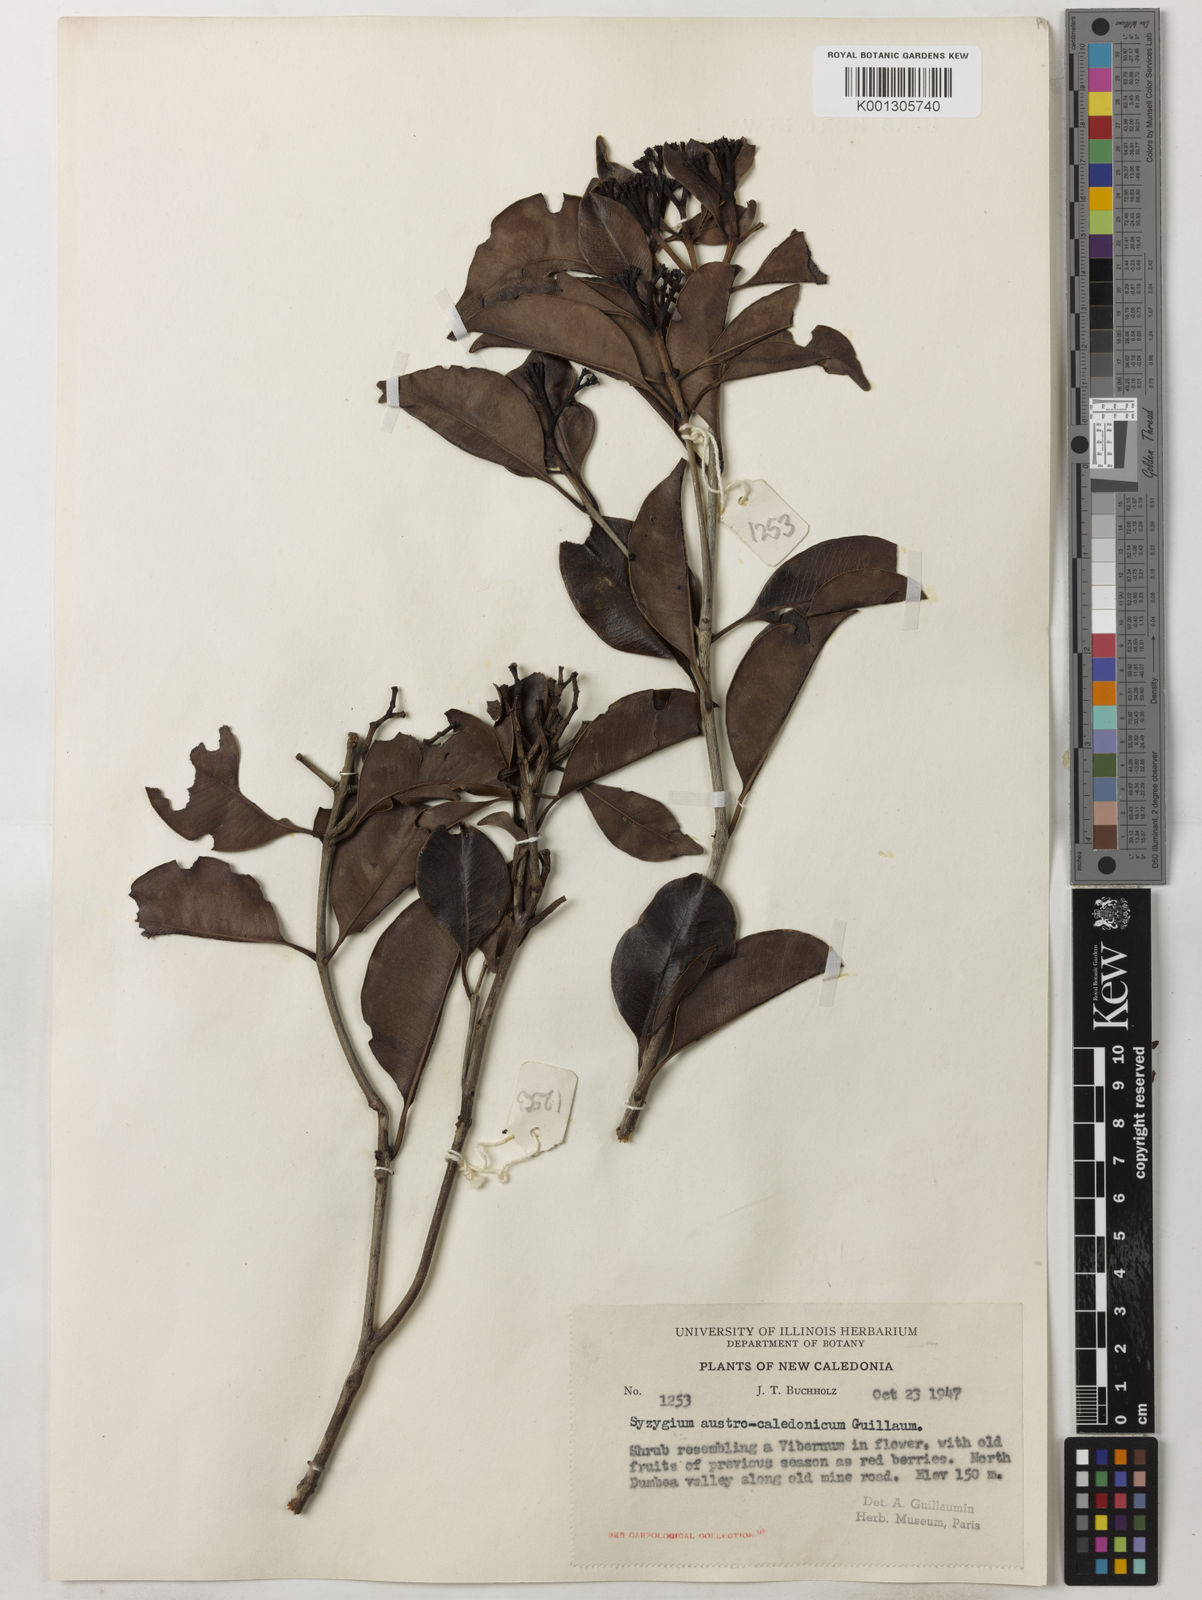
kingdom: Plantae
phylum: Tracheophyta
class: Magnoliopsida
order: Myrtales
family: Myrtaceae
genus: Syzygium
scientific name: Syzygium austrocaledonicum
